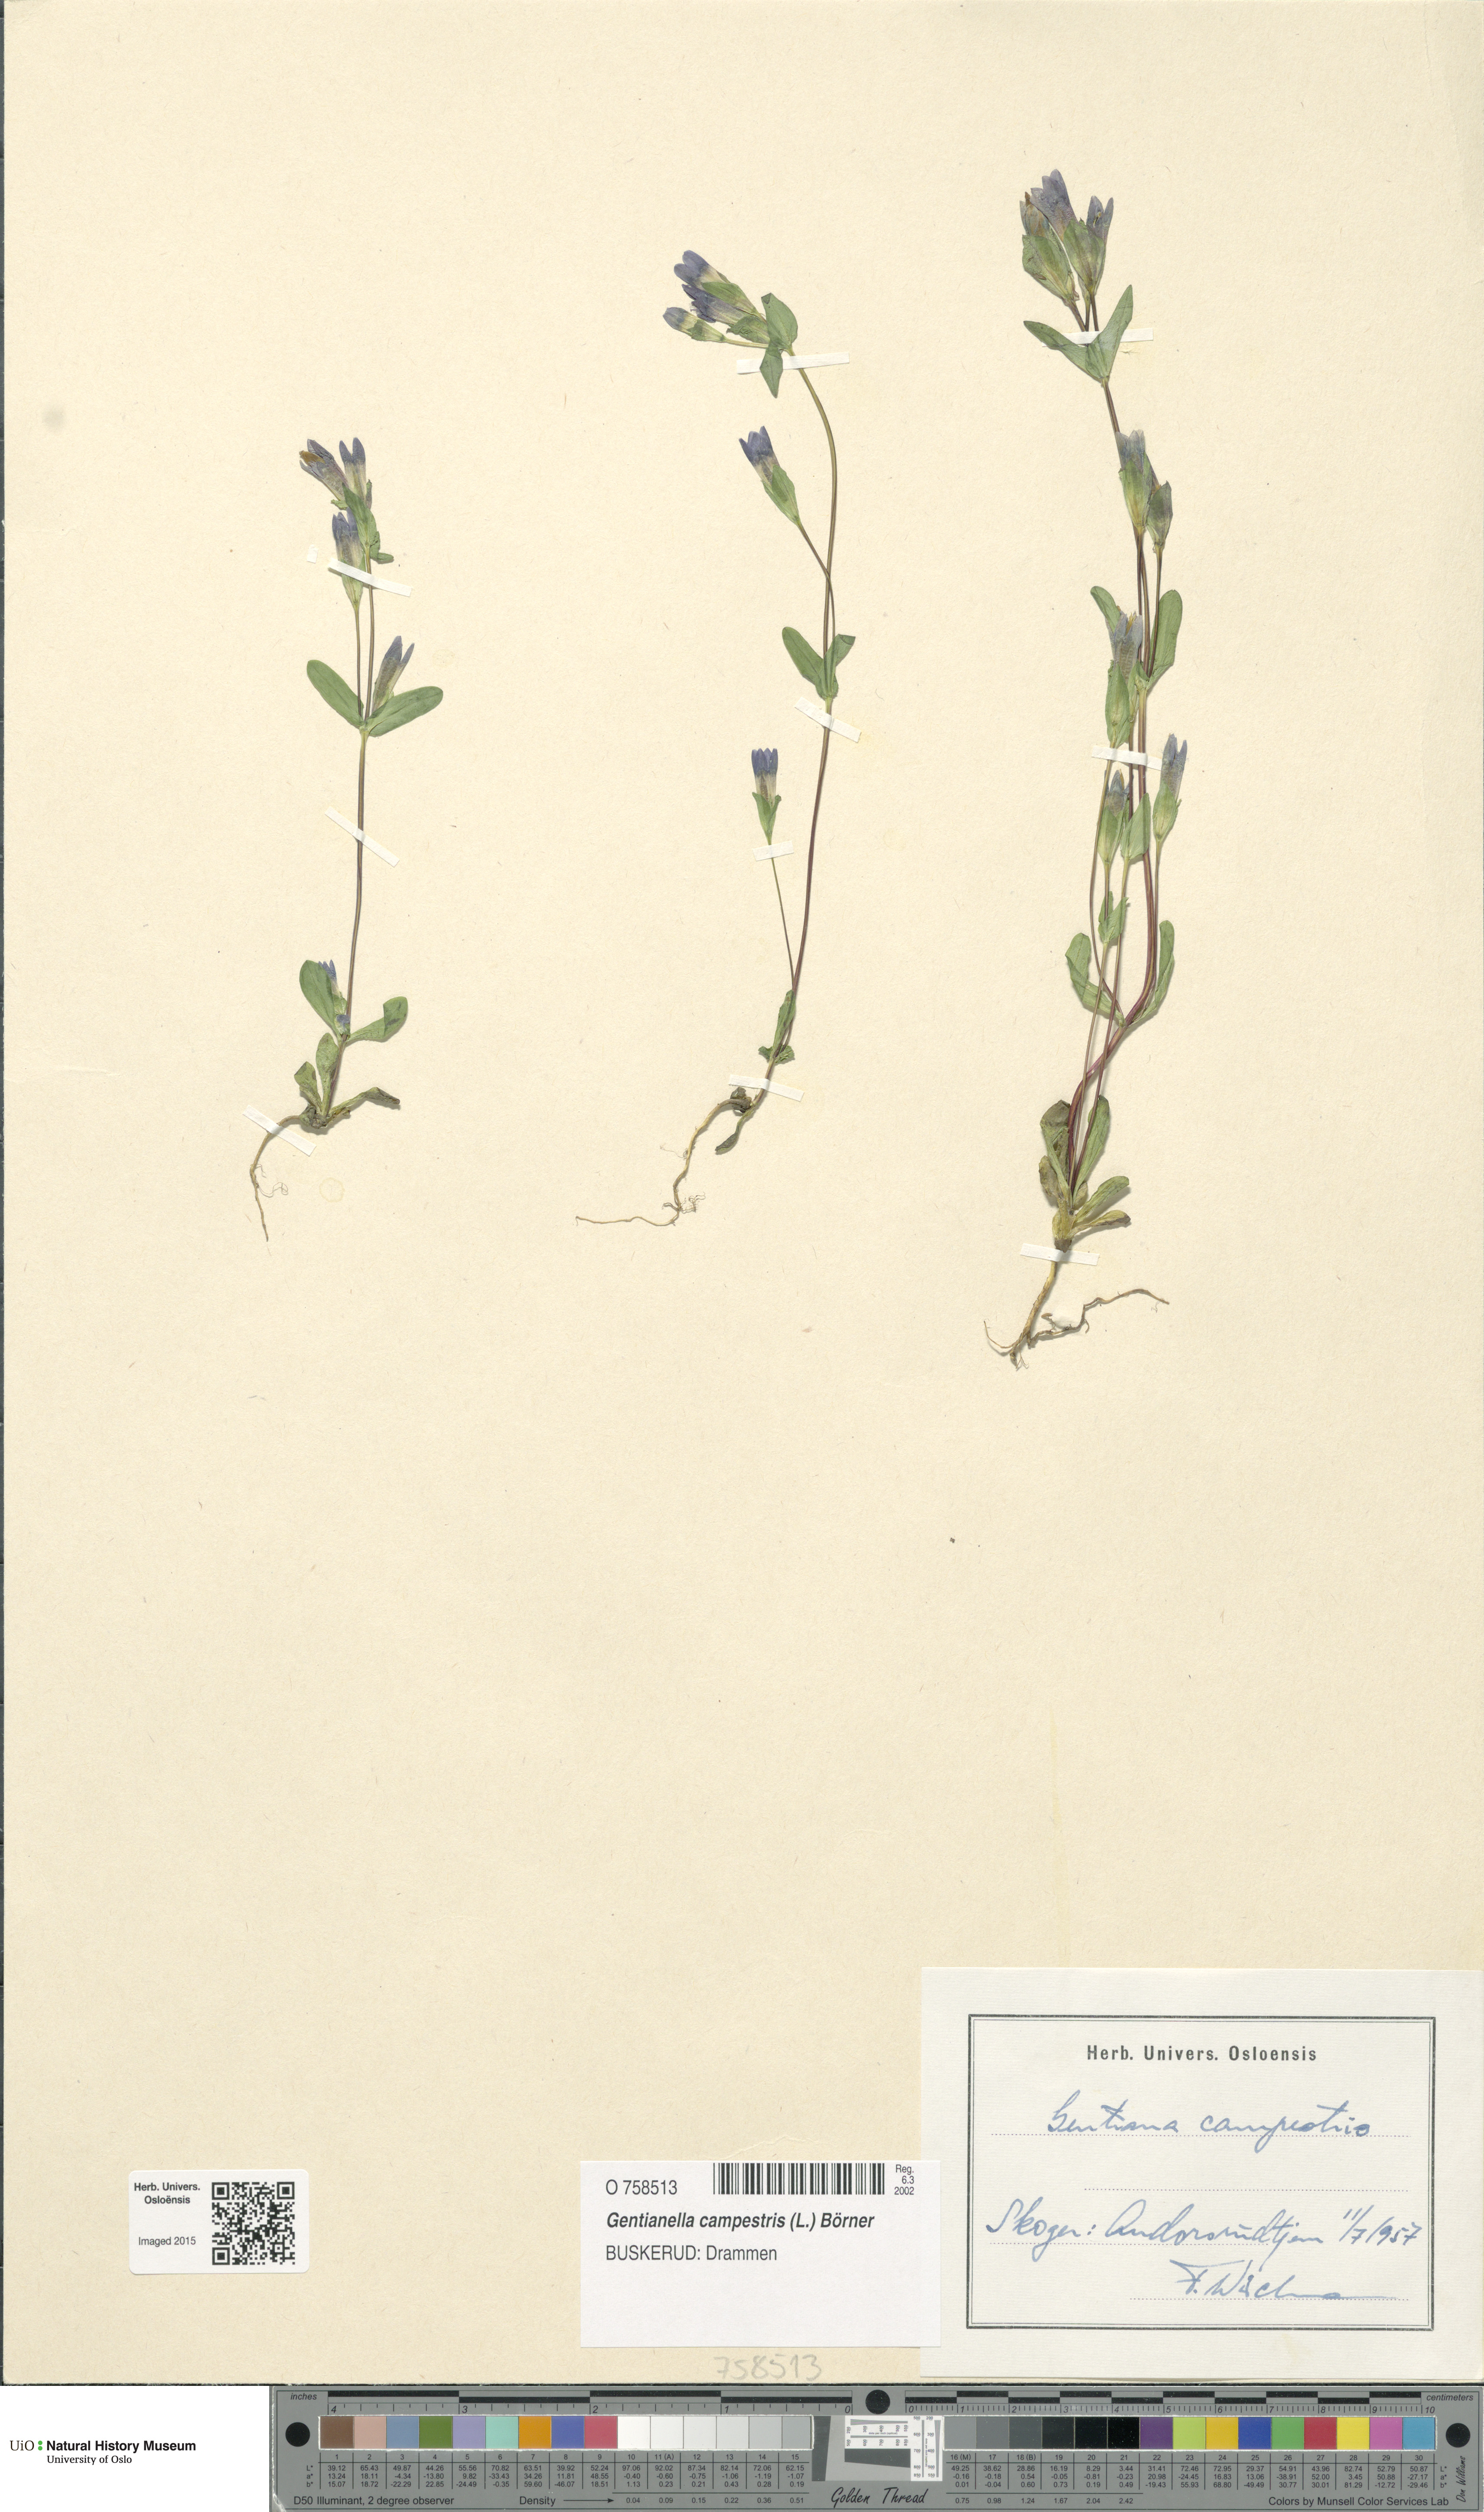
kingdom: Plantae
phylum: Tracheophyta
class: Magnoliopsida
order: Gentianales
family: Gentianaceae
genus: Gentianella
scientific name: Gentianella campestris
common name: Field gentian
